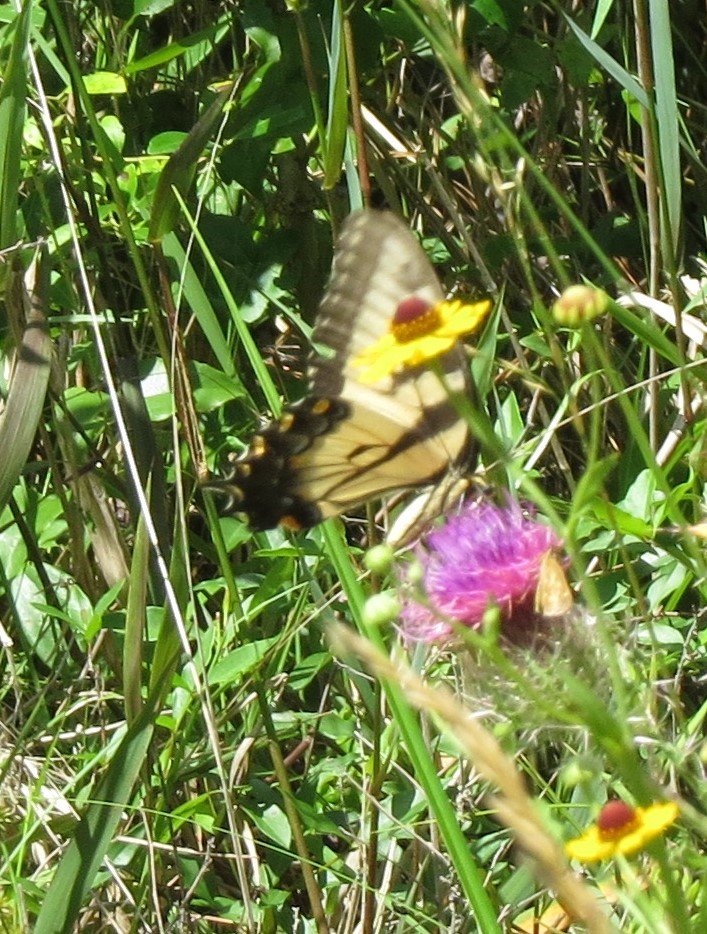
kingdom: Animalia
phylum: Arthropoda
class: Insecta
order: Lepidoptera
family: Papilionidae
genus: Pterourus
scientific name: Pterourus glaucus
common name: Eastern Tiger Swallowtail
